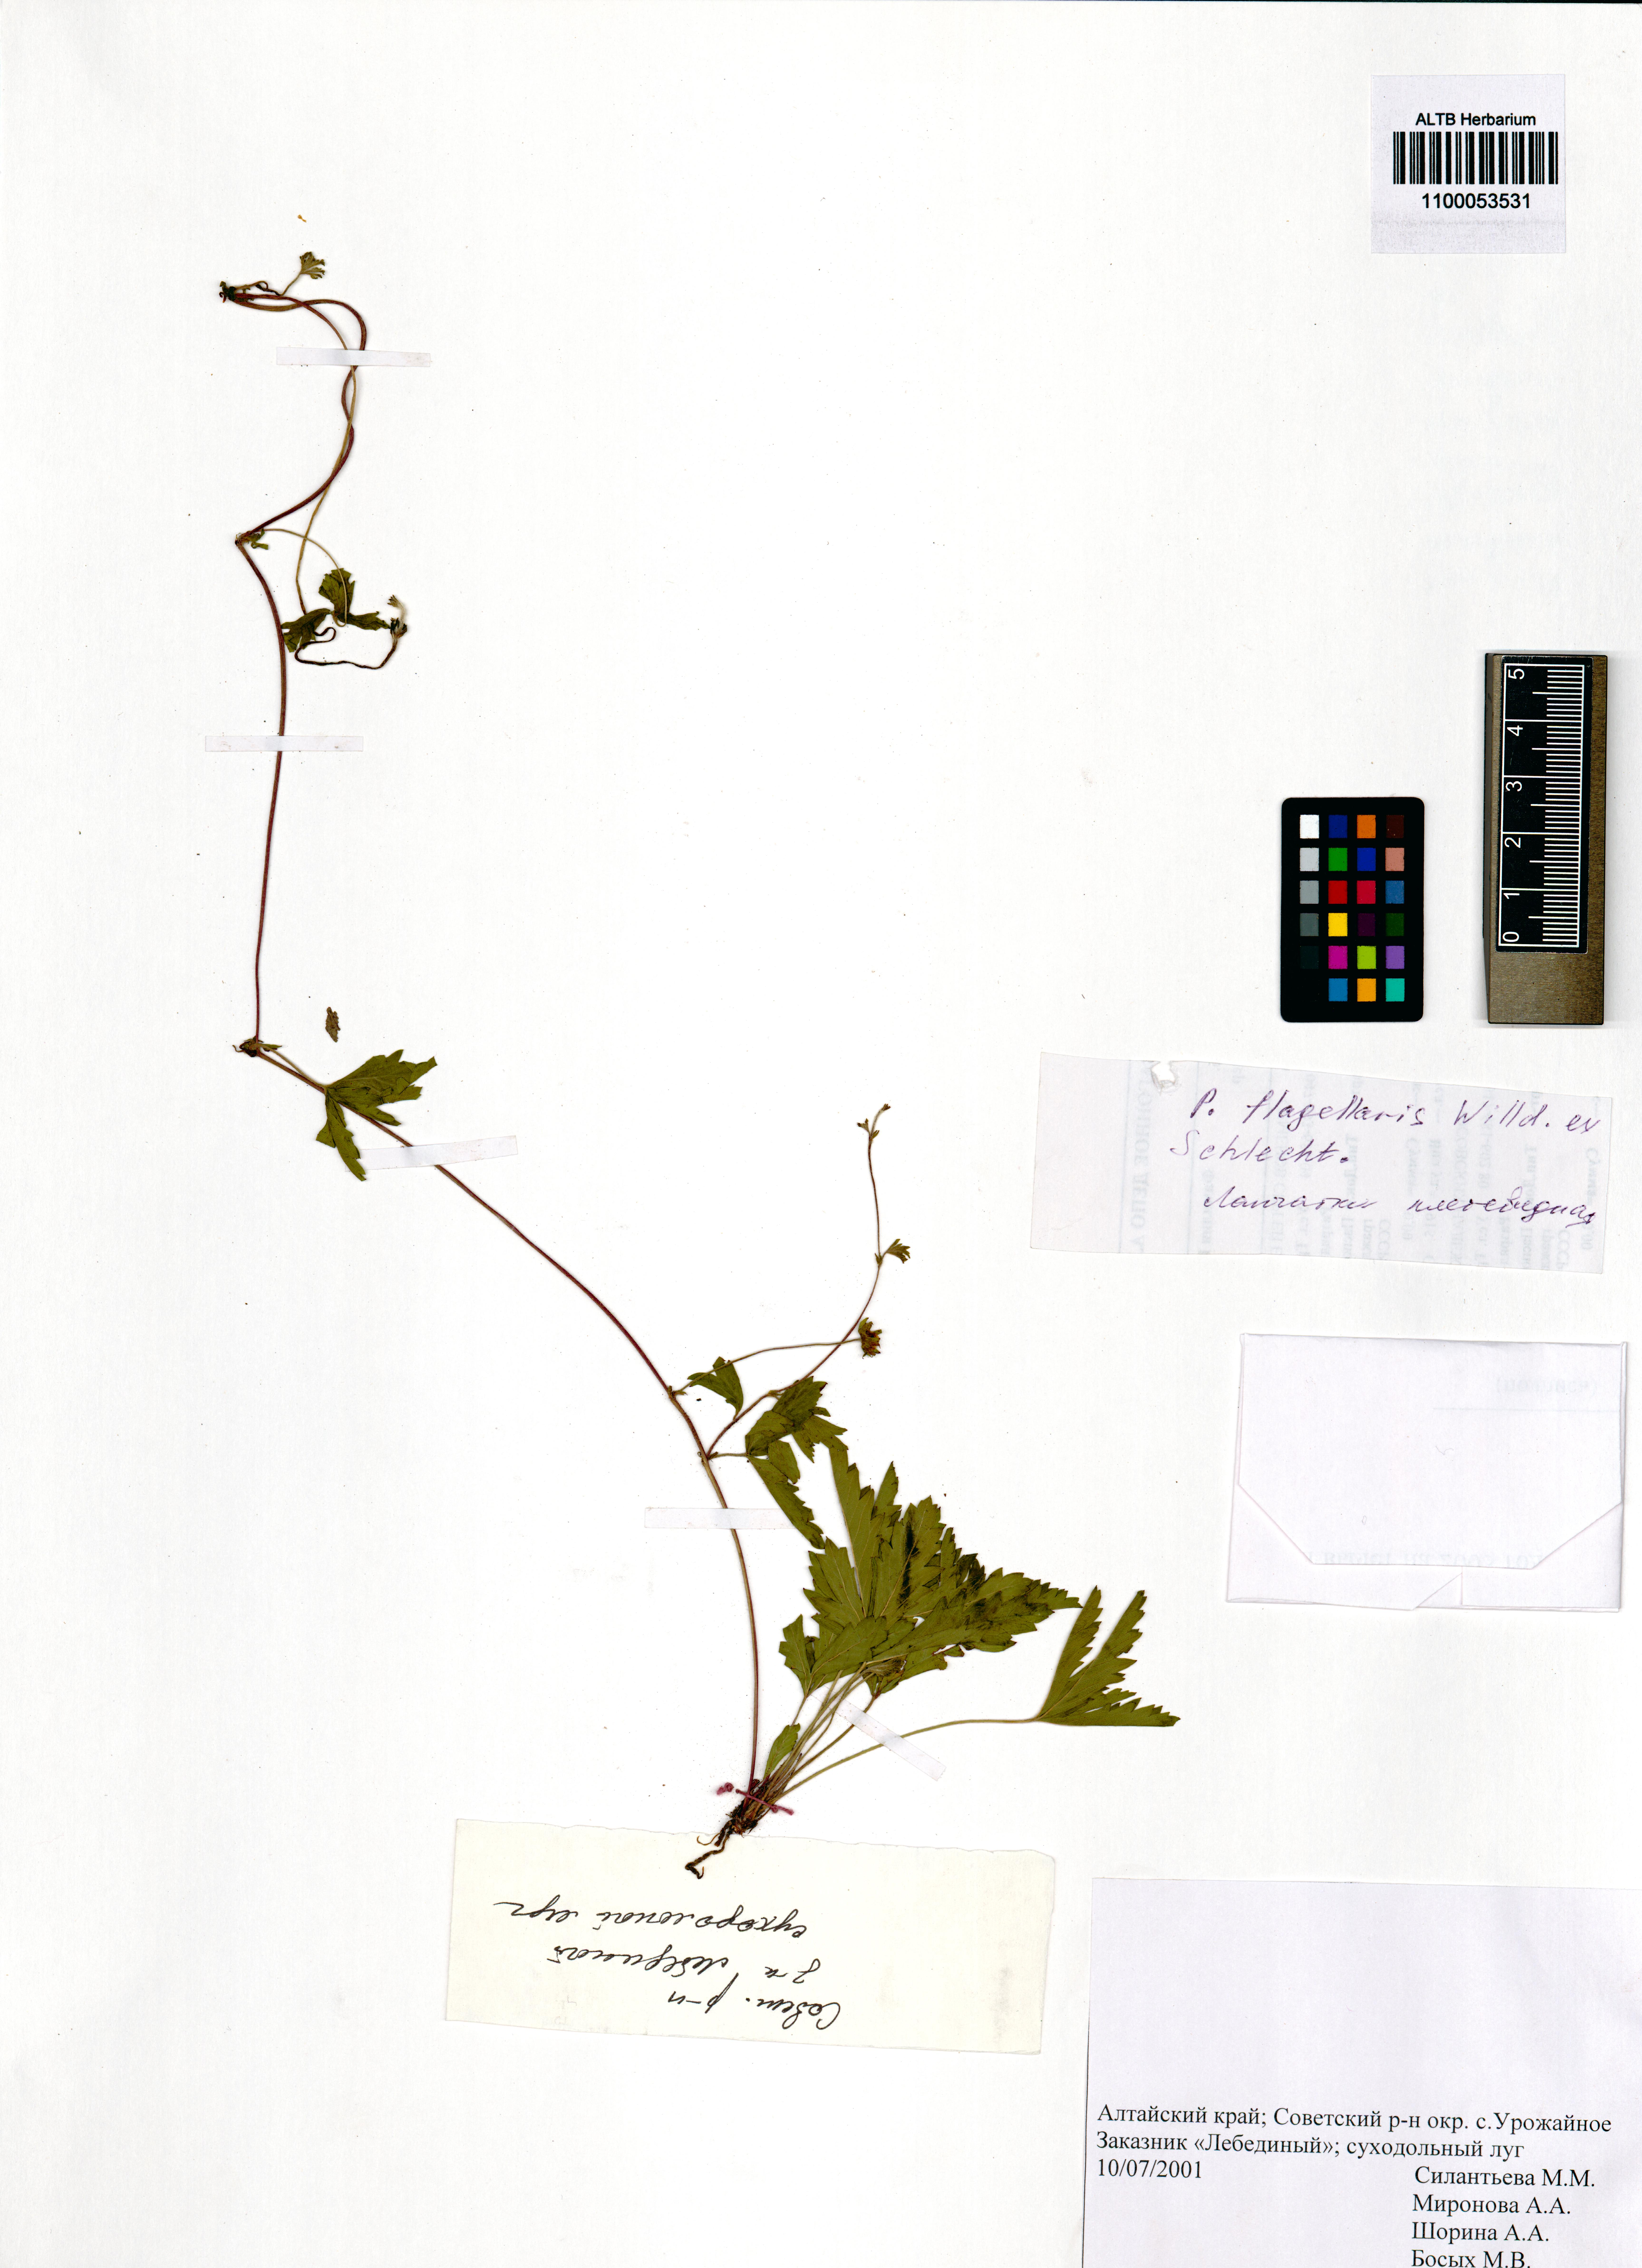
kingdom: Plantae
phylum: Tracheophyta
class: Magnoliopsida
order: Rosales
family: Rosaceae
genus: Potentilla
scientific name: Potentilla flagellaris
